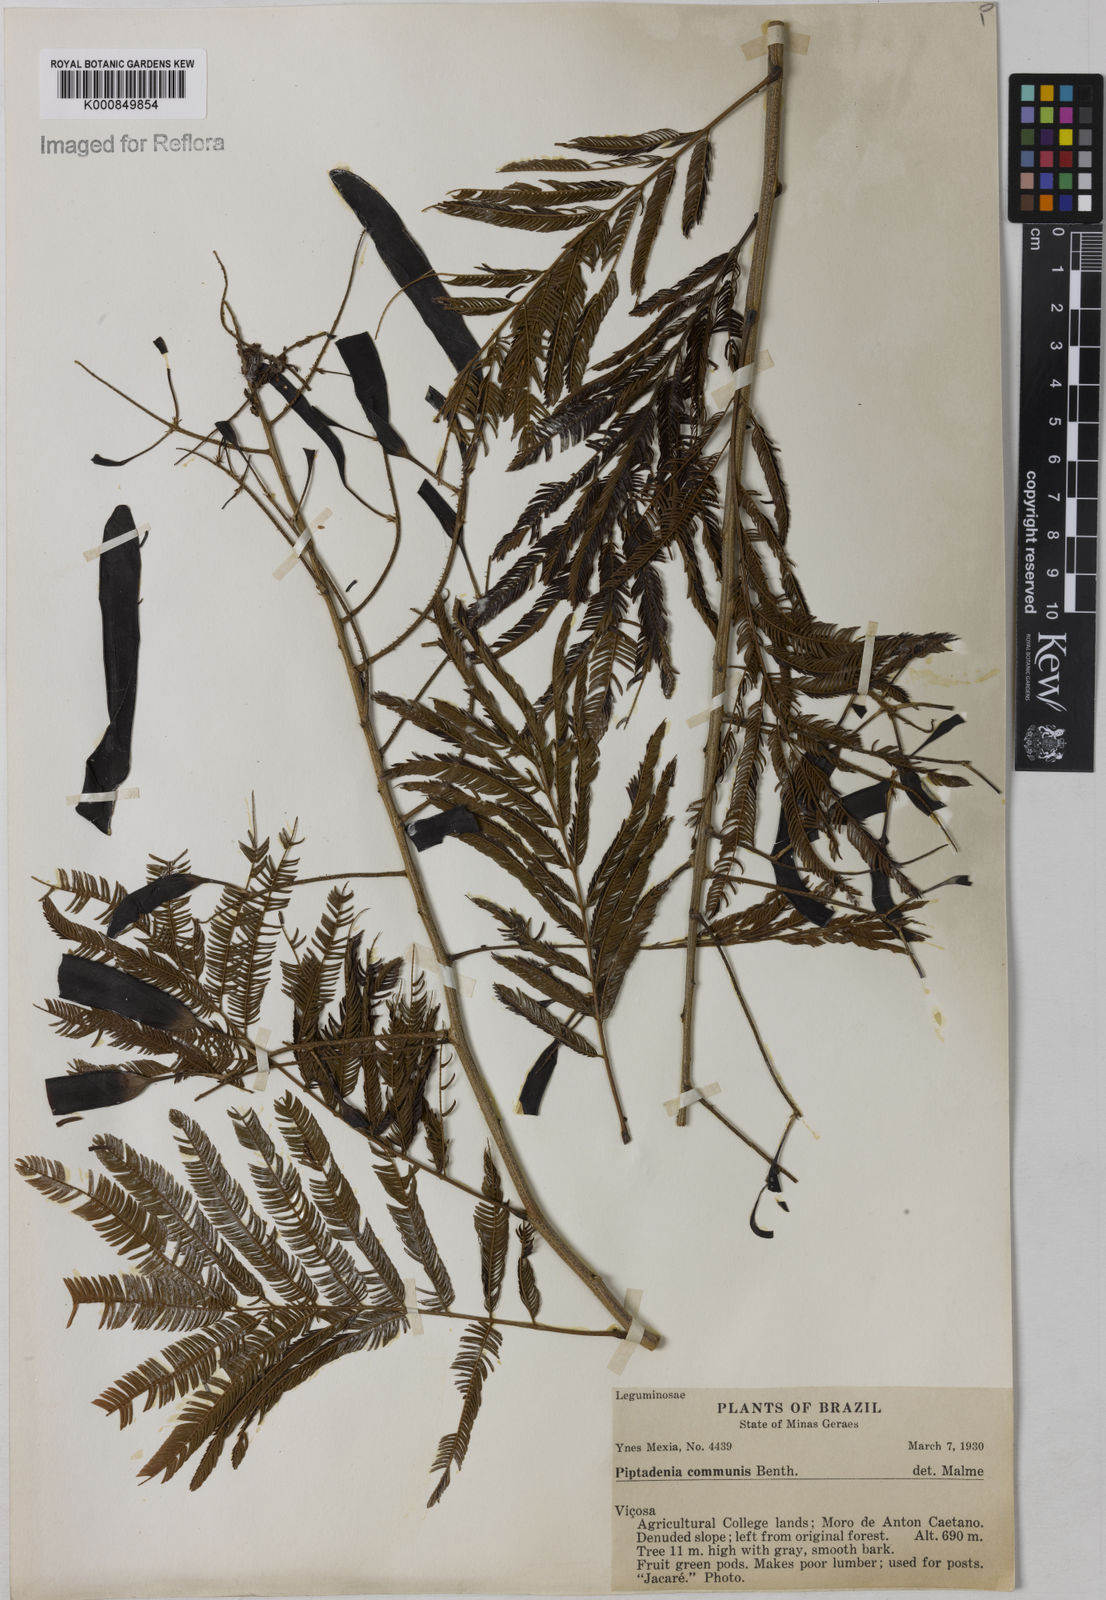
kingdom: Plantae
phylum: Tracheophyta
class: Magnoliopsida
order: Fabales
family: Fabaceae
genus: Piptadenia
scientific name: Piptadenia gonoacantha
